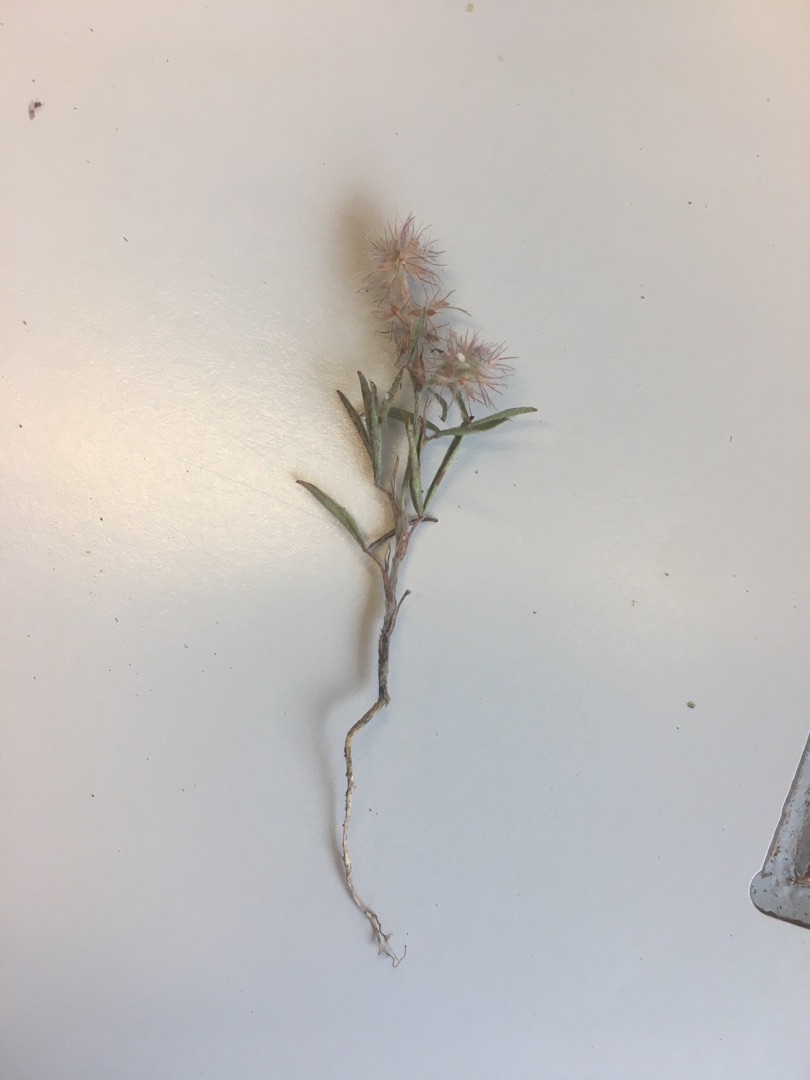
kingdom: Plantae
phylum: Tracheophyta
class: Magnoliopsida
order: Fabales
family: Fabaceae
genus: Trifolium
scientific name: Trifolium arvense
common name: Hare-kløver
